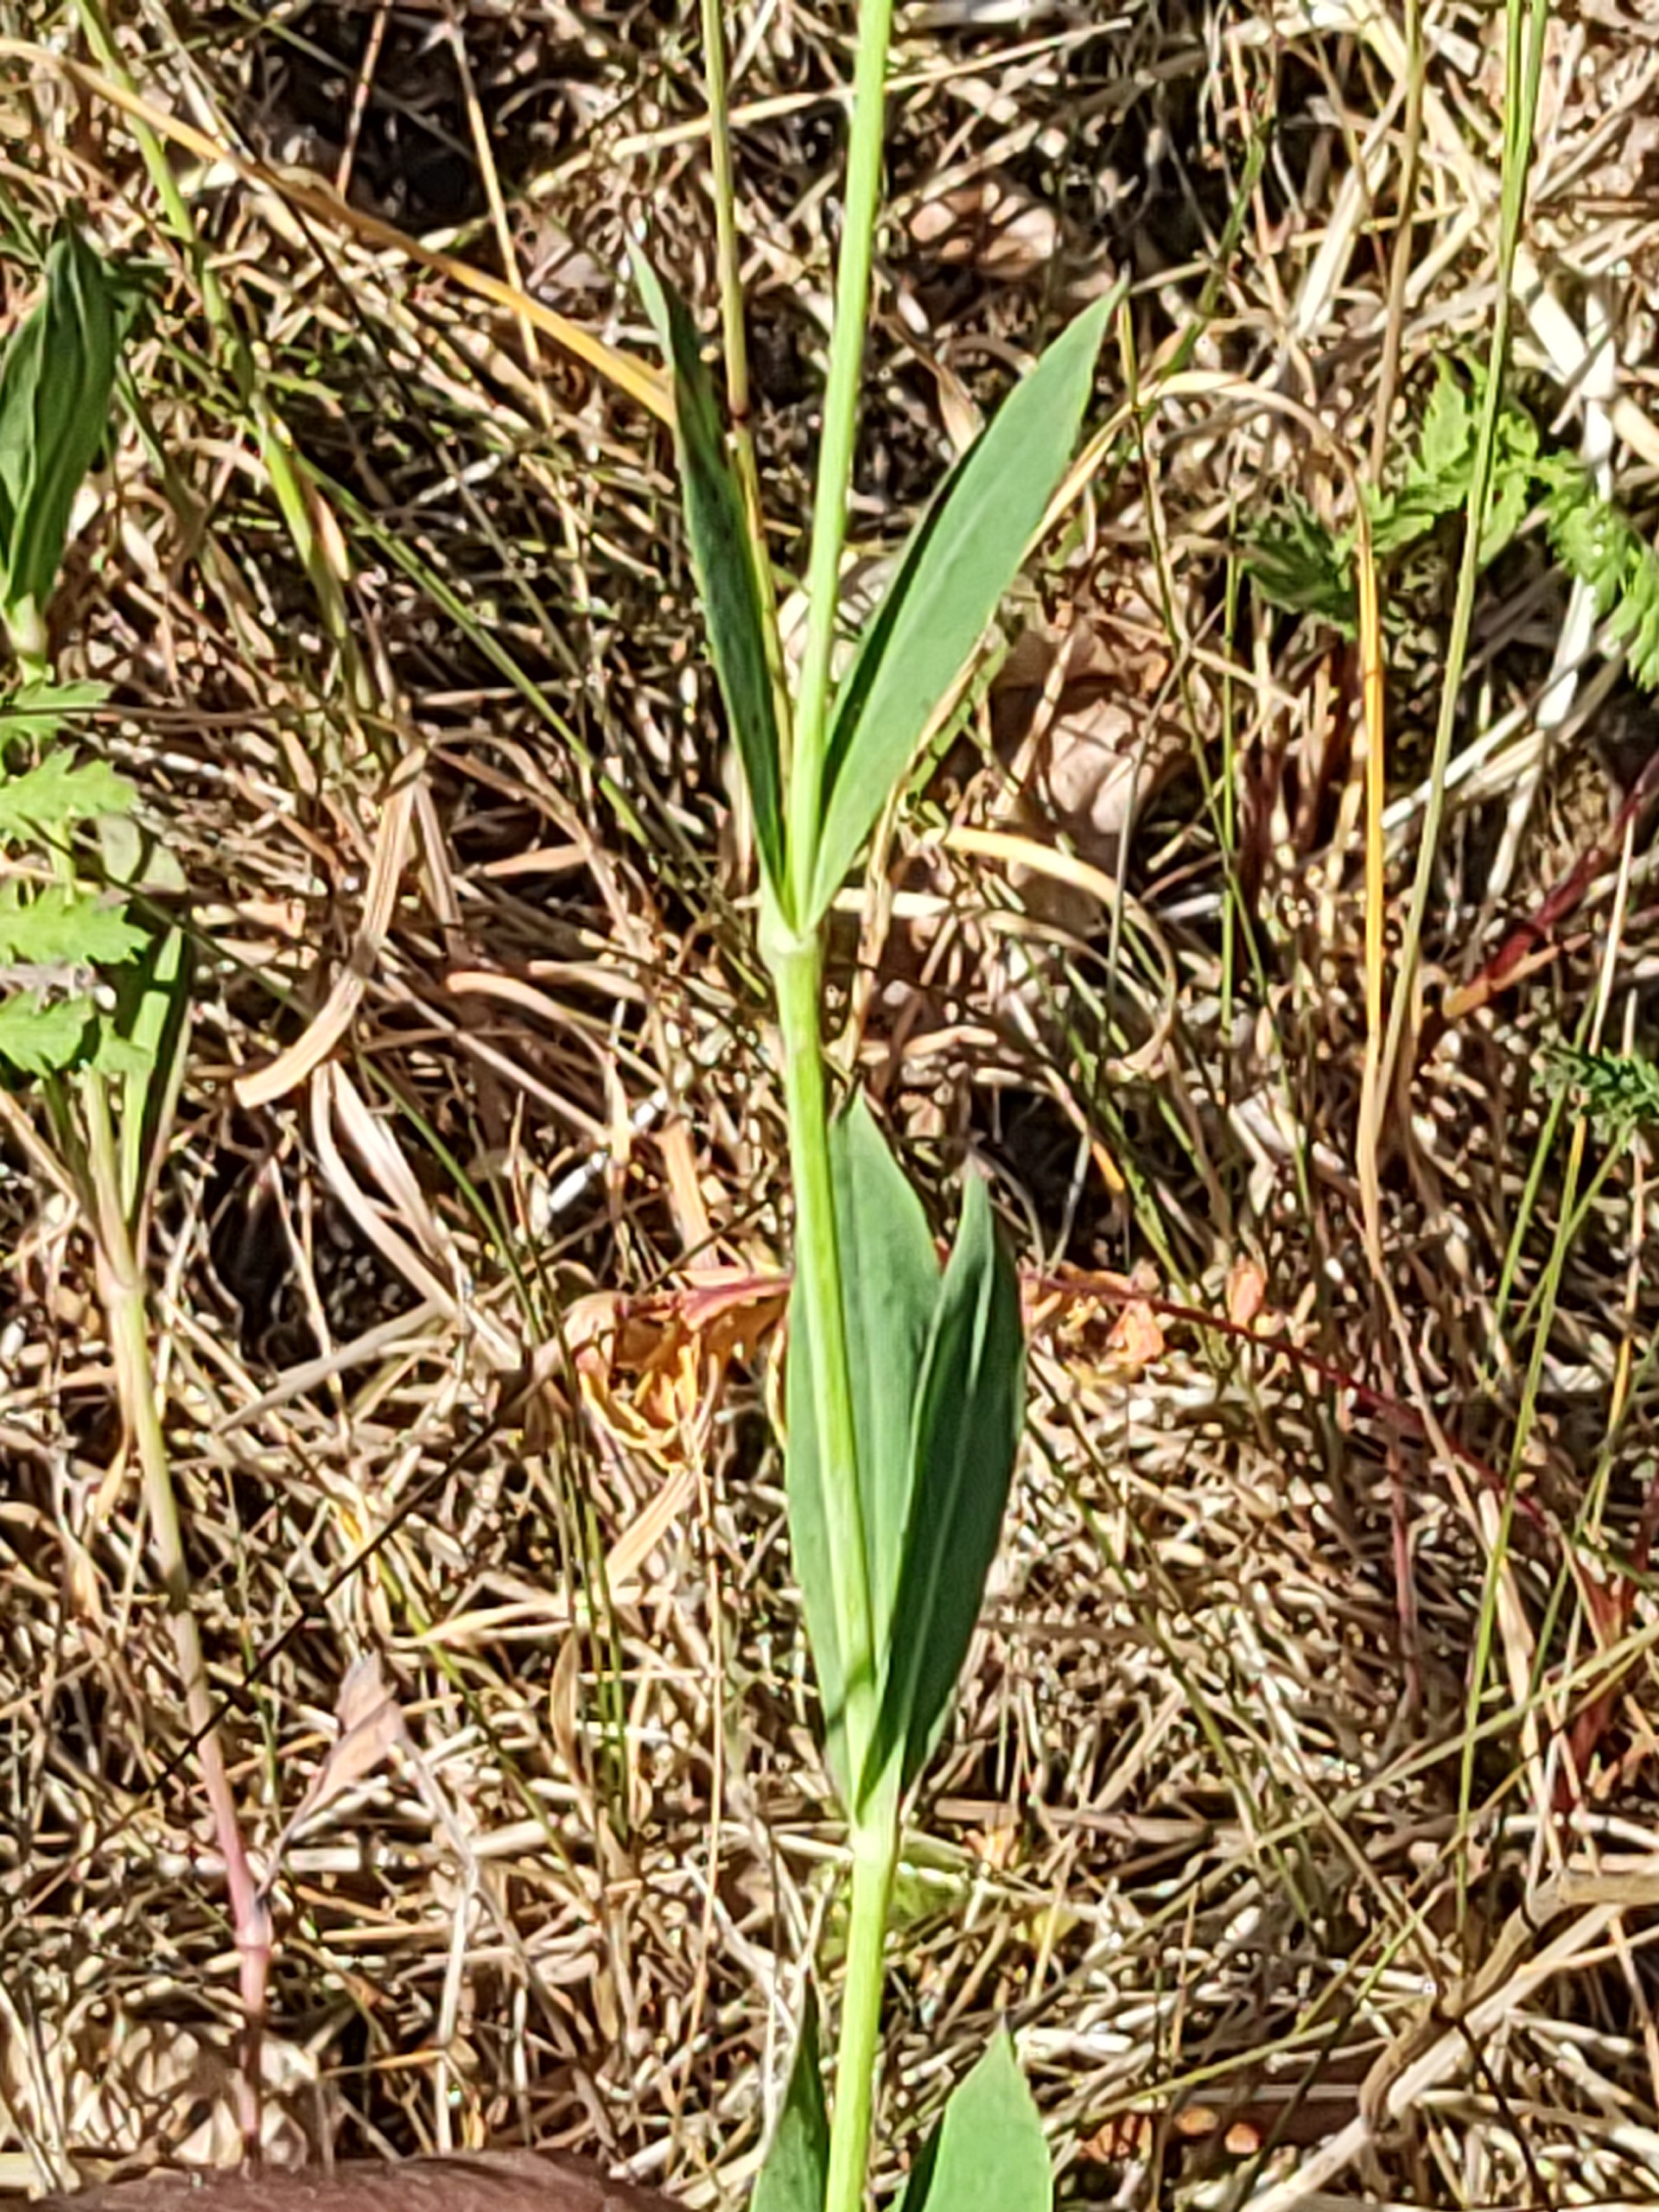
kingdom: Plantae
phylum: Tracheophyta
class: Magnoliopsida
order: Caryophyllales
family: Caryophyllaceae
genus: Silene
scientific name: Silene vulgaris
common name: Blæresmælde
